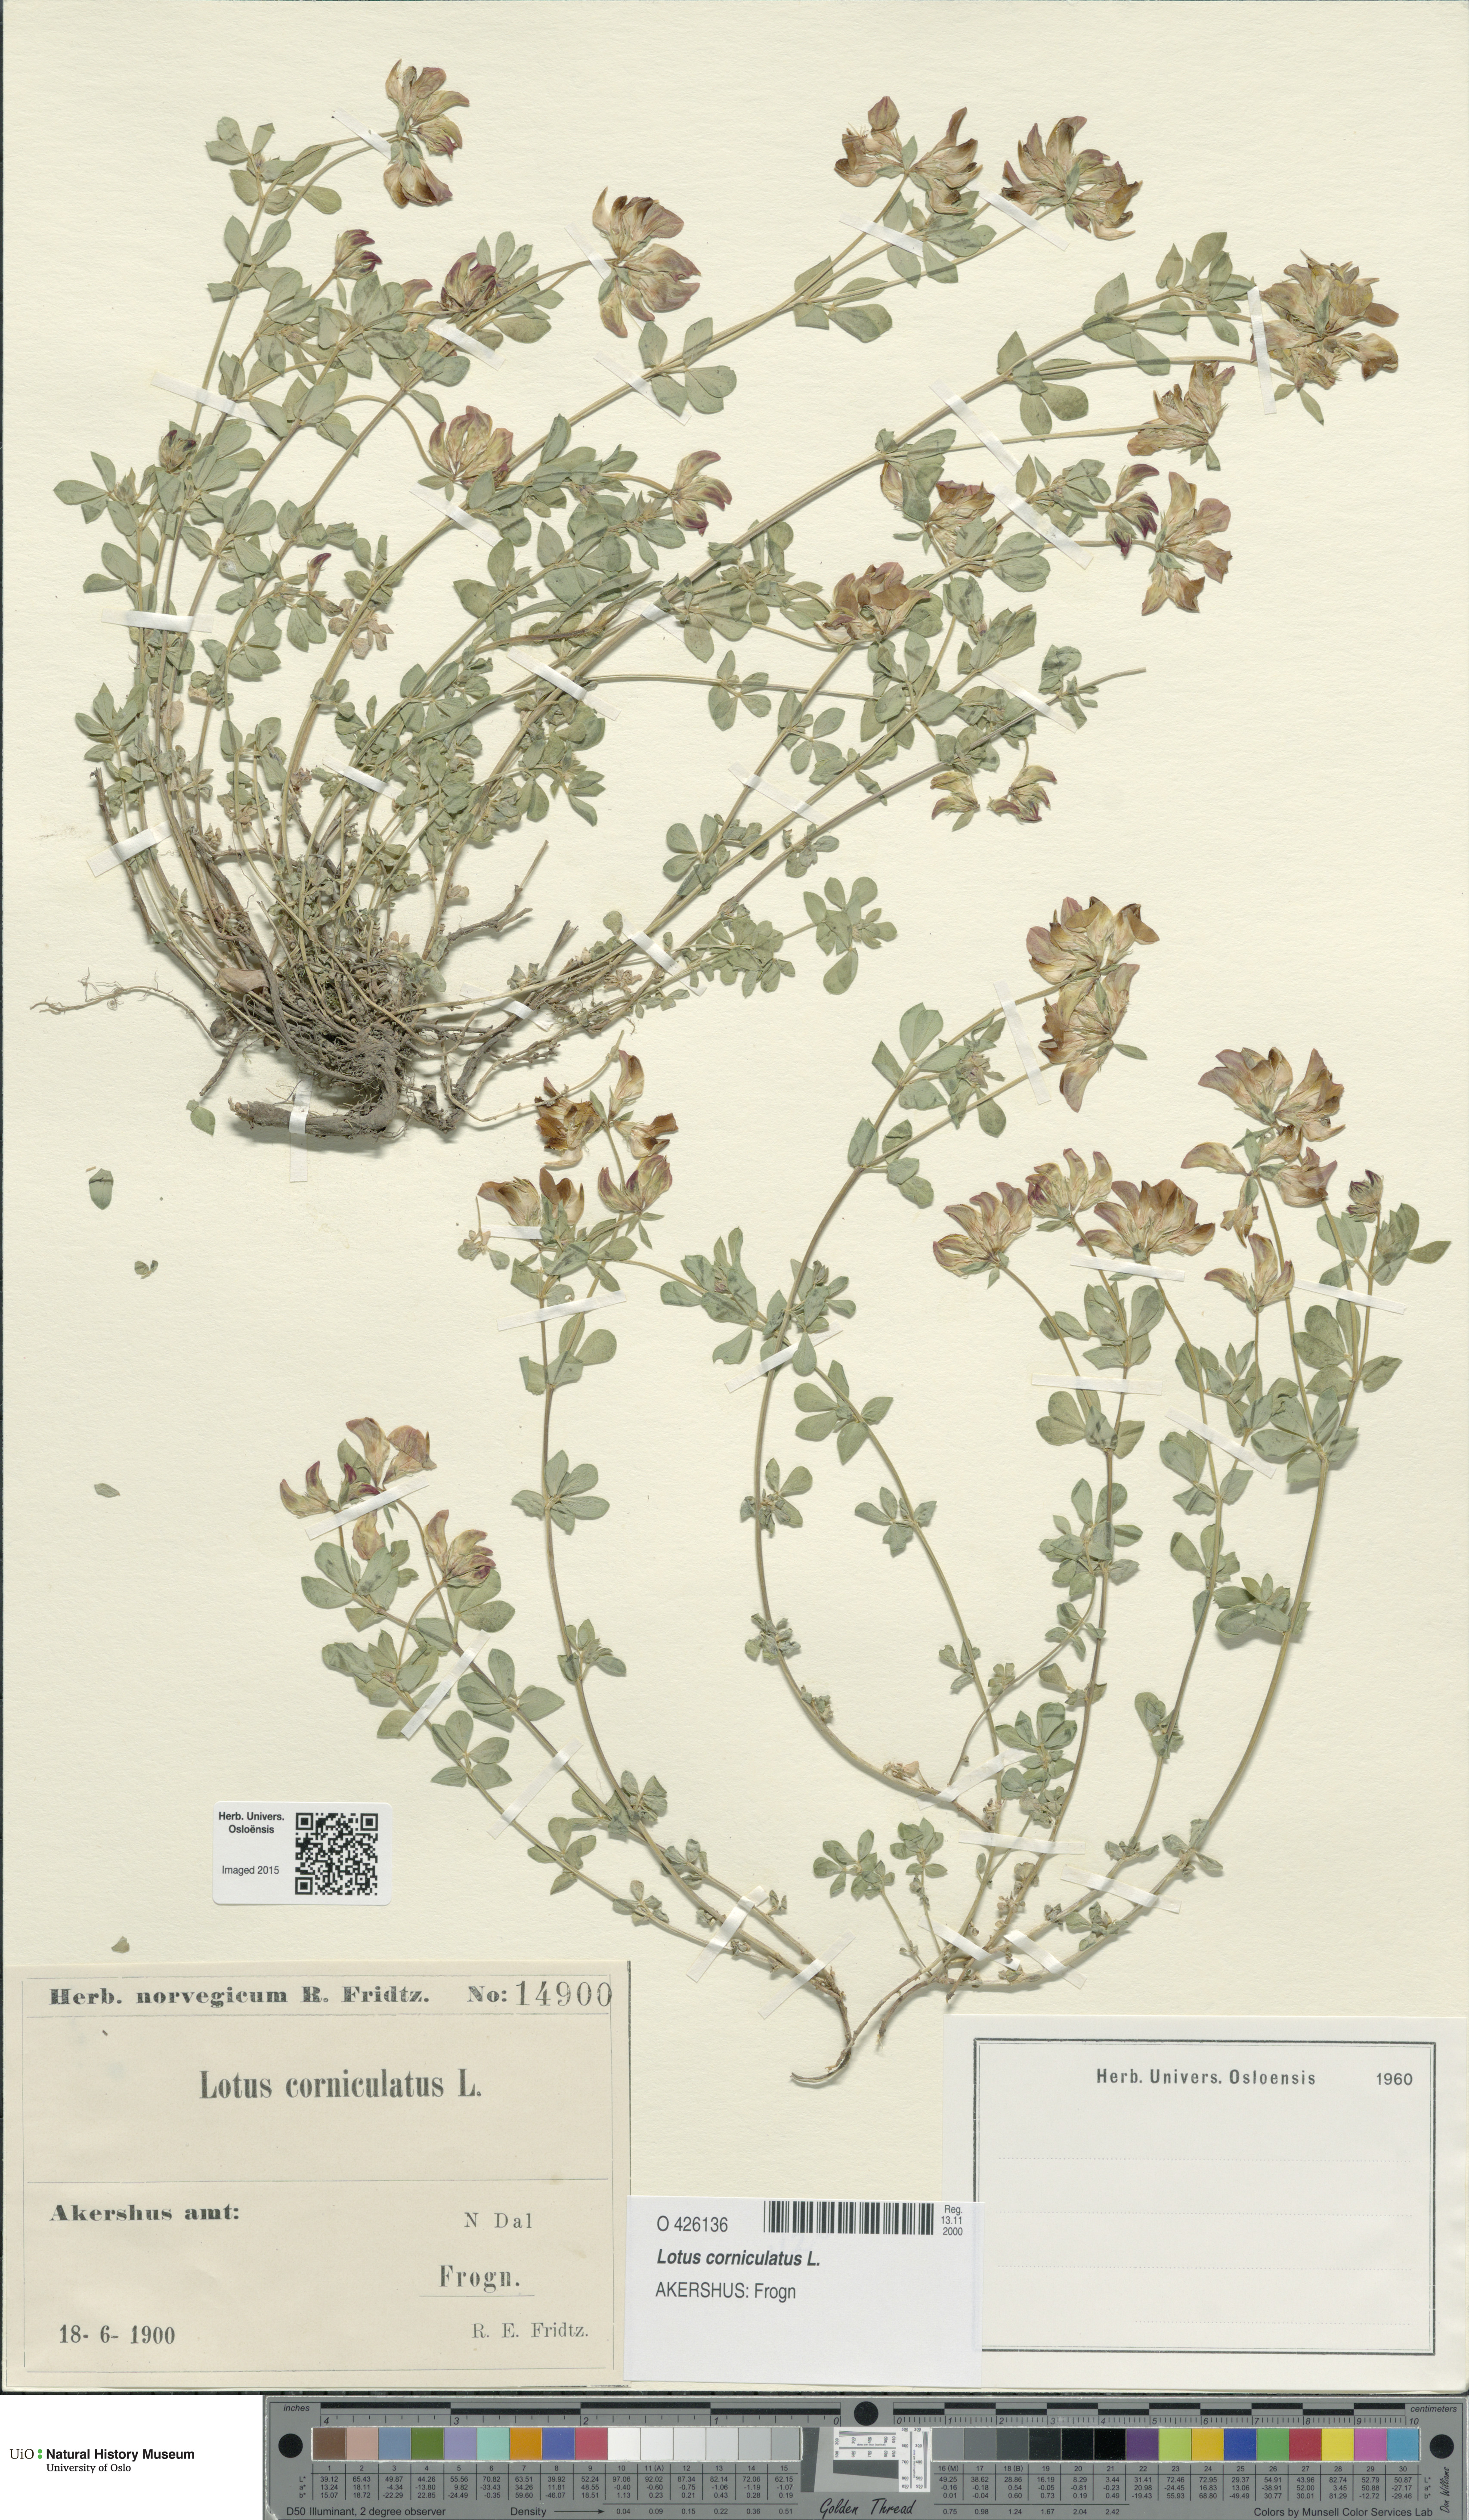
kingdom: Plantae
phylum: Tracheophyta
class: Magnoliopsida
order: Fabales
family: Fabaceae
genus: Lotus
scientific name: Lotus corniculatus
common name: Common bird's-foot-trefoil
